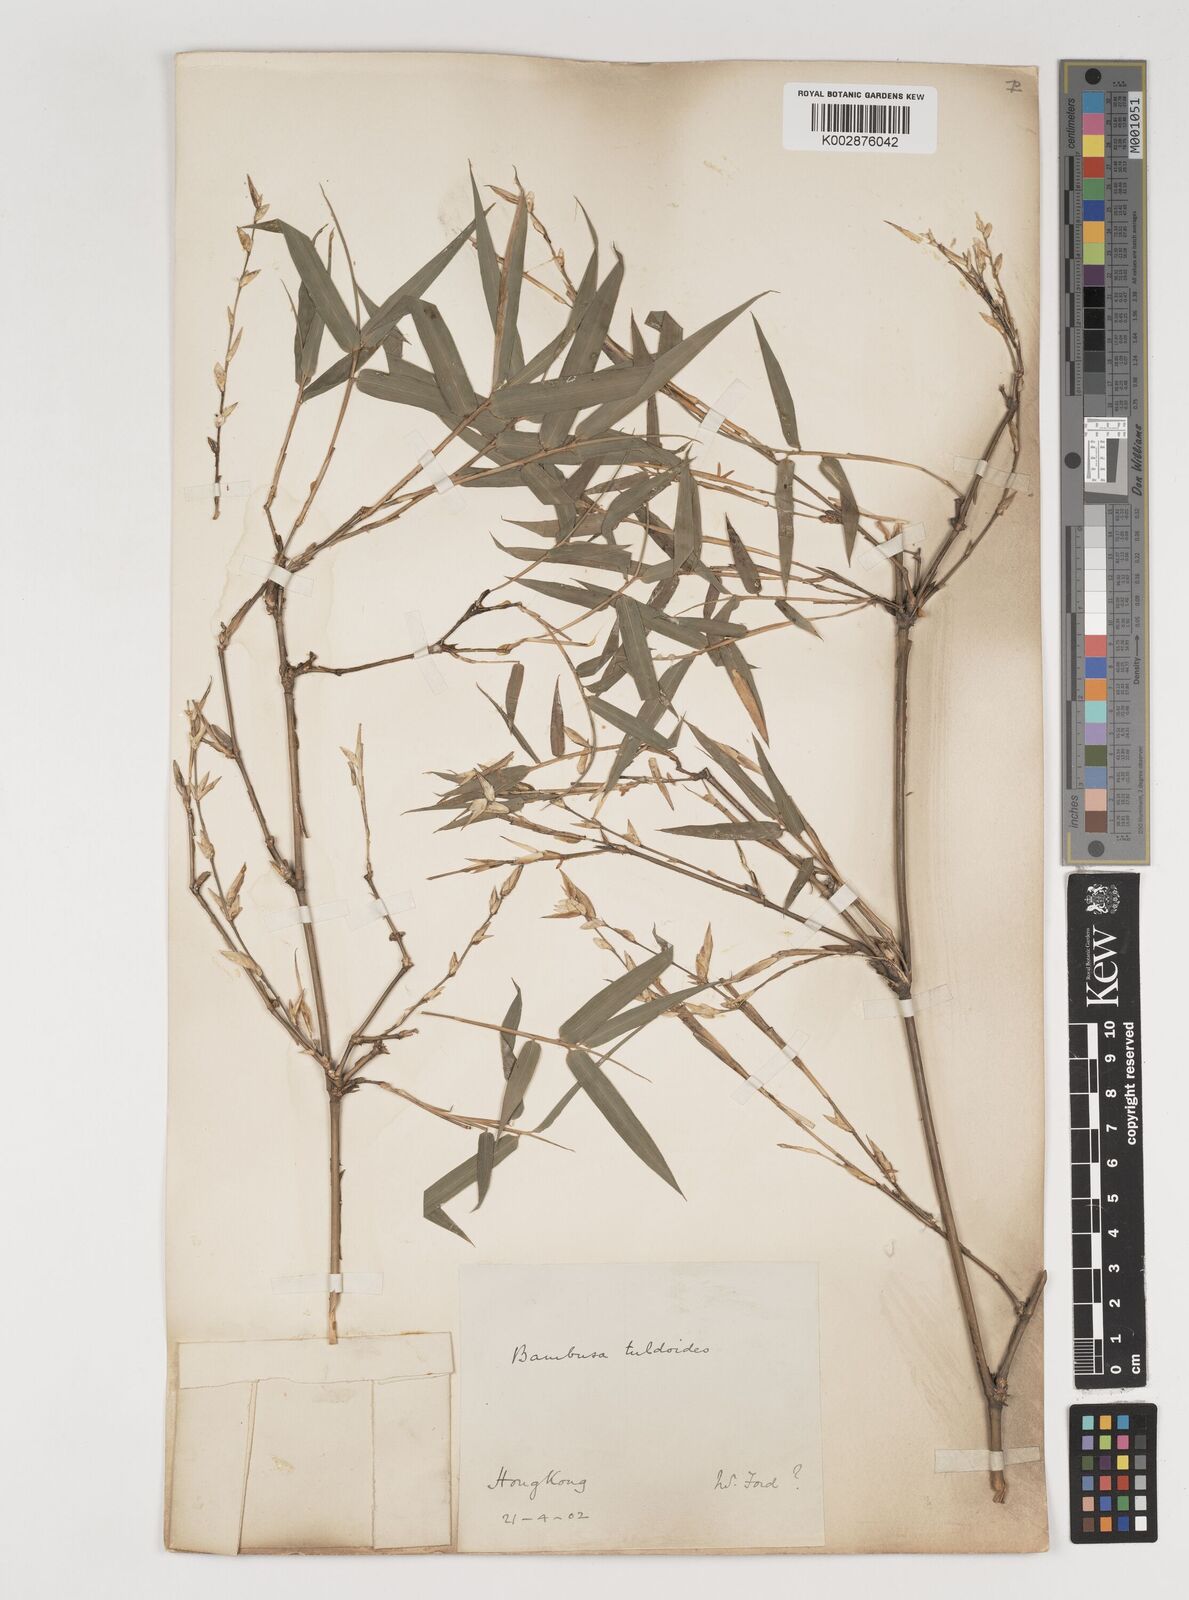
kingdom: Plantae
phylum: Tracheophyta
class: Liliopsida
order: Poales
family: Poaceae
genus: Bambusa
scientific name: Bambusa tuldoides
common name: Verdant bamboo
